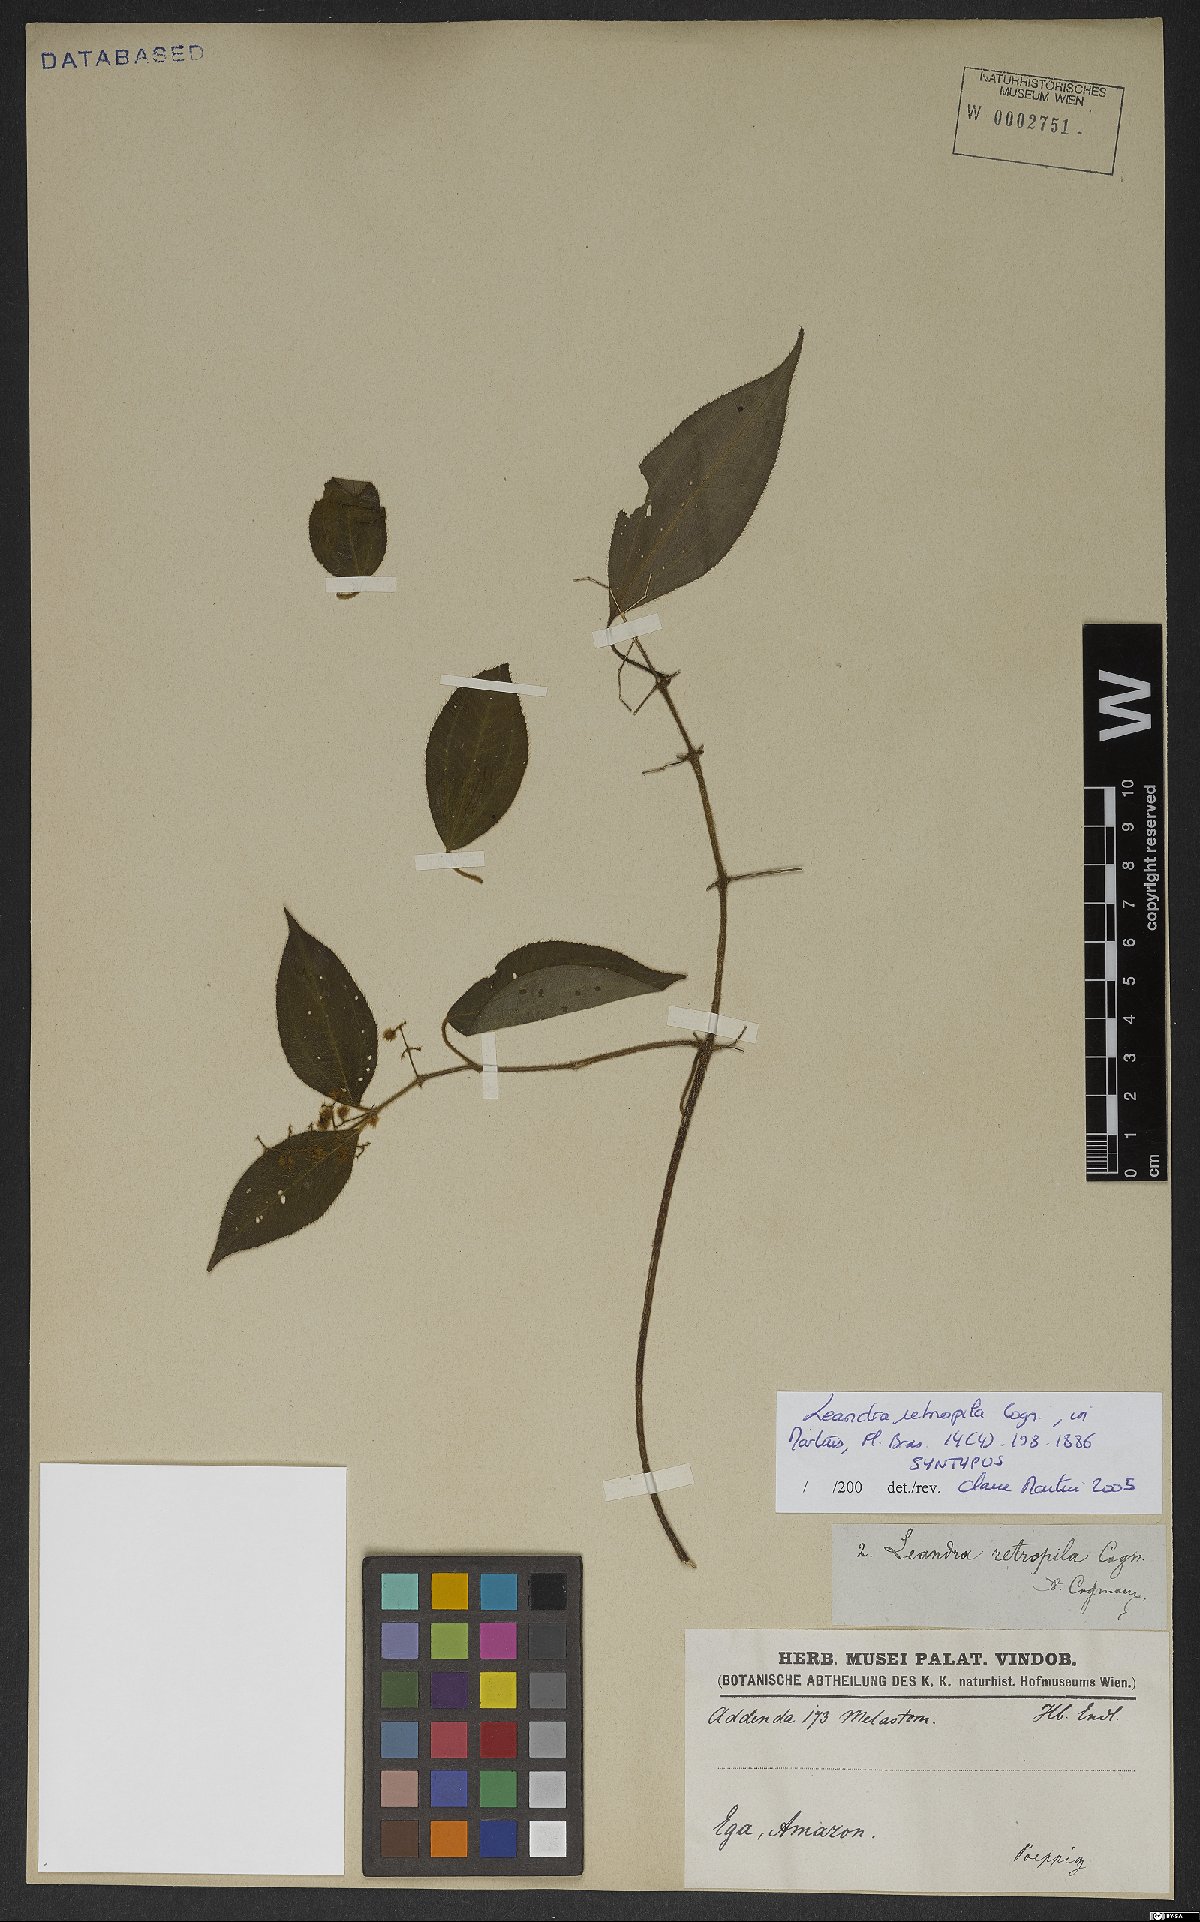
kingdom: Plantae
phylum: Tracheophyta
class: Magnoliopsida
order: Myrtales
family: Melastomataceae
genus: Miconia
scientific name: Miconia secunretropila
